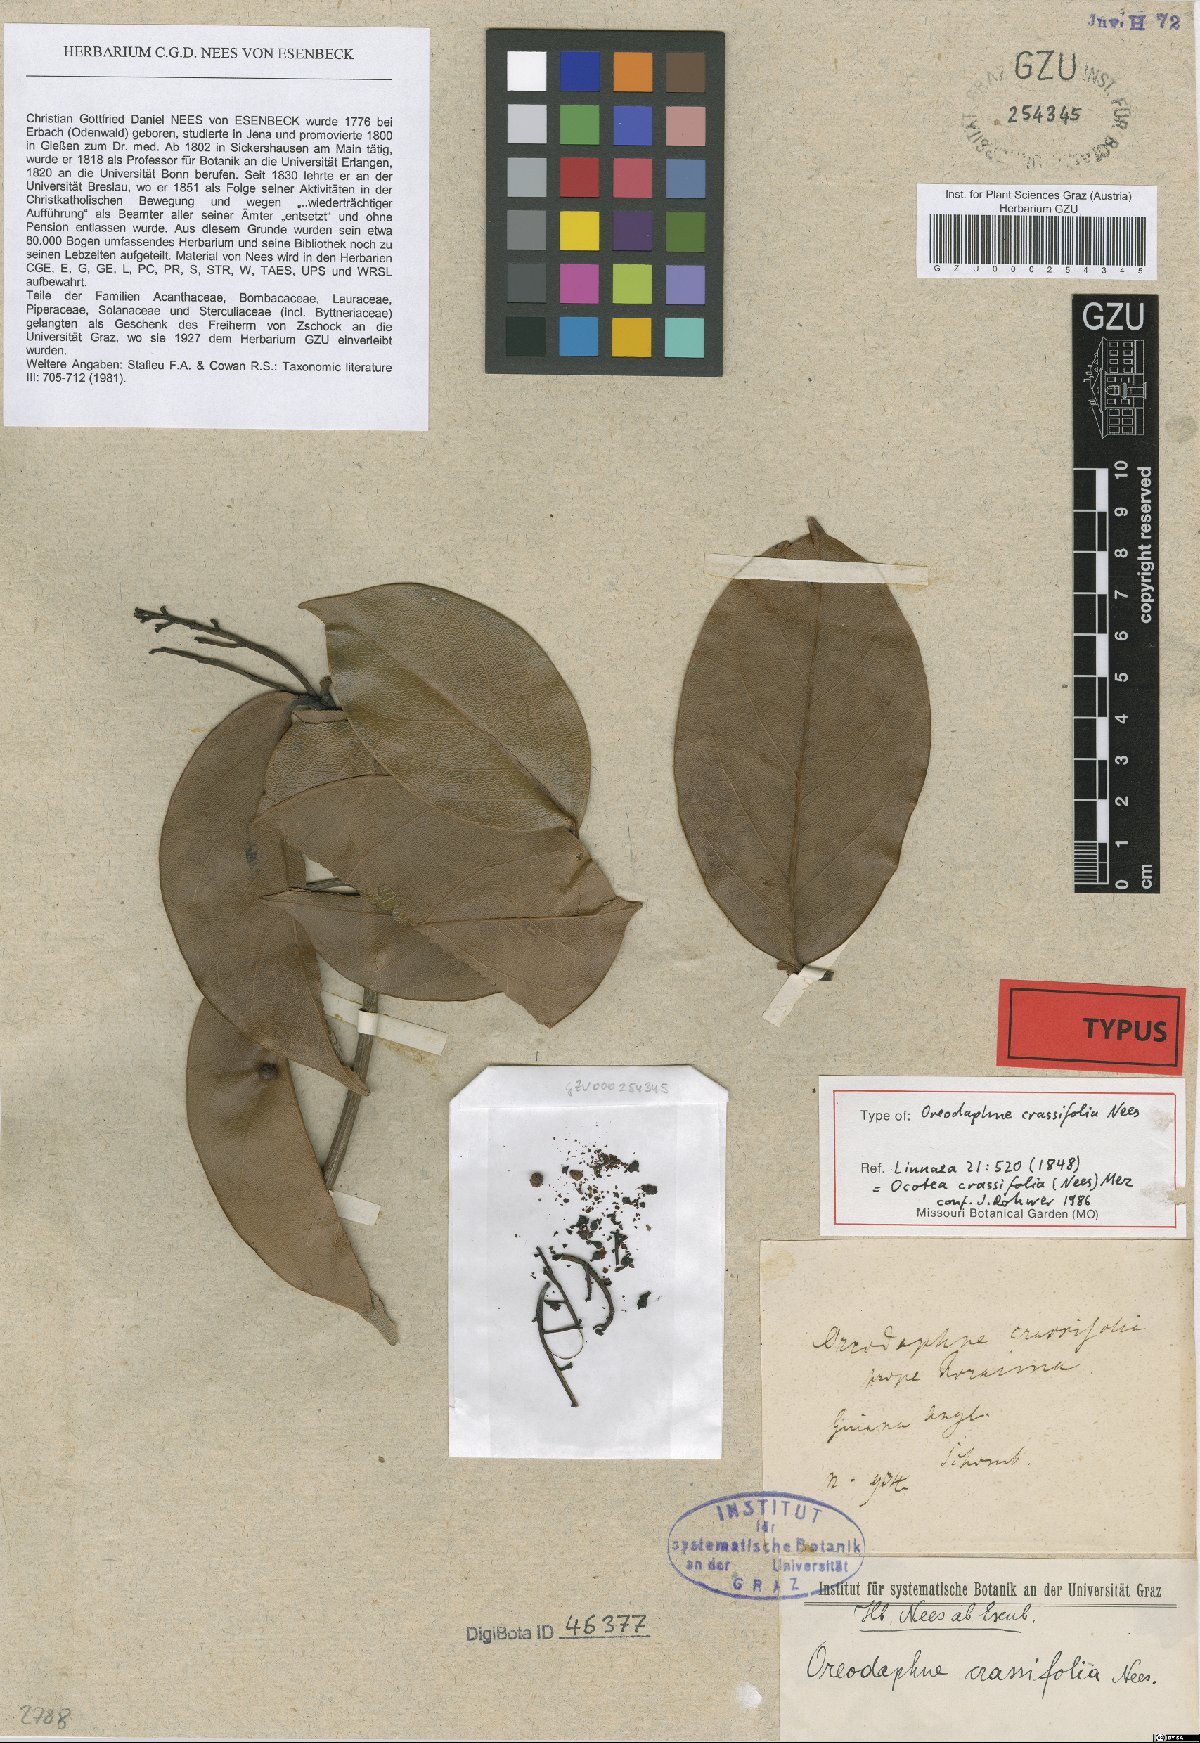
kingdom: Plantae
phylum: Tracheophyta
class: Magnoliopsida
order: Laurales
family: Lauraceae
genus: Ocotea
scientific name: Ocotea crassifolia
